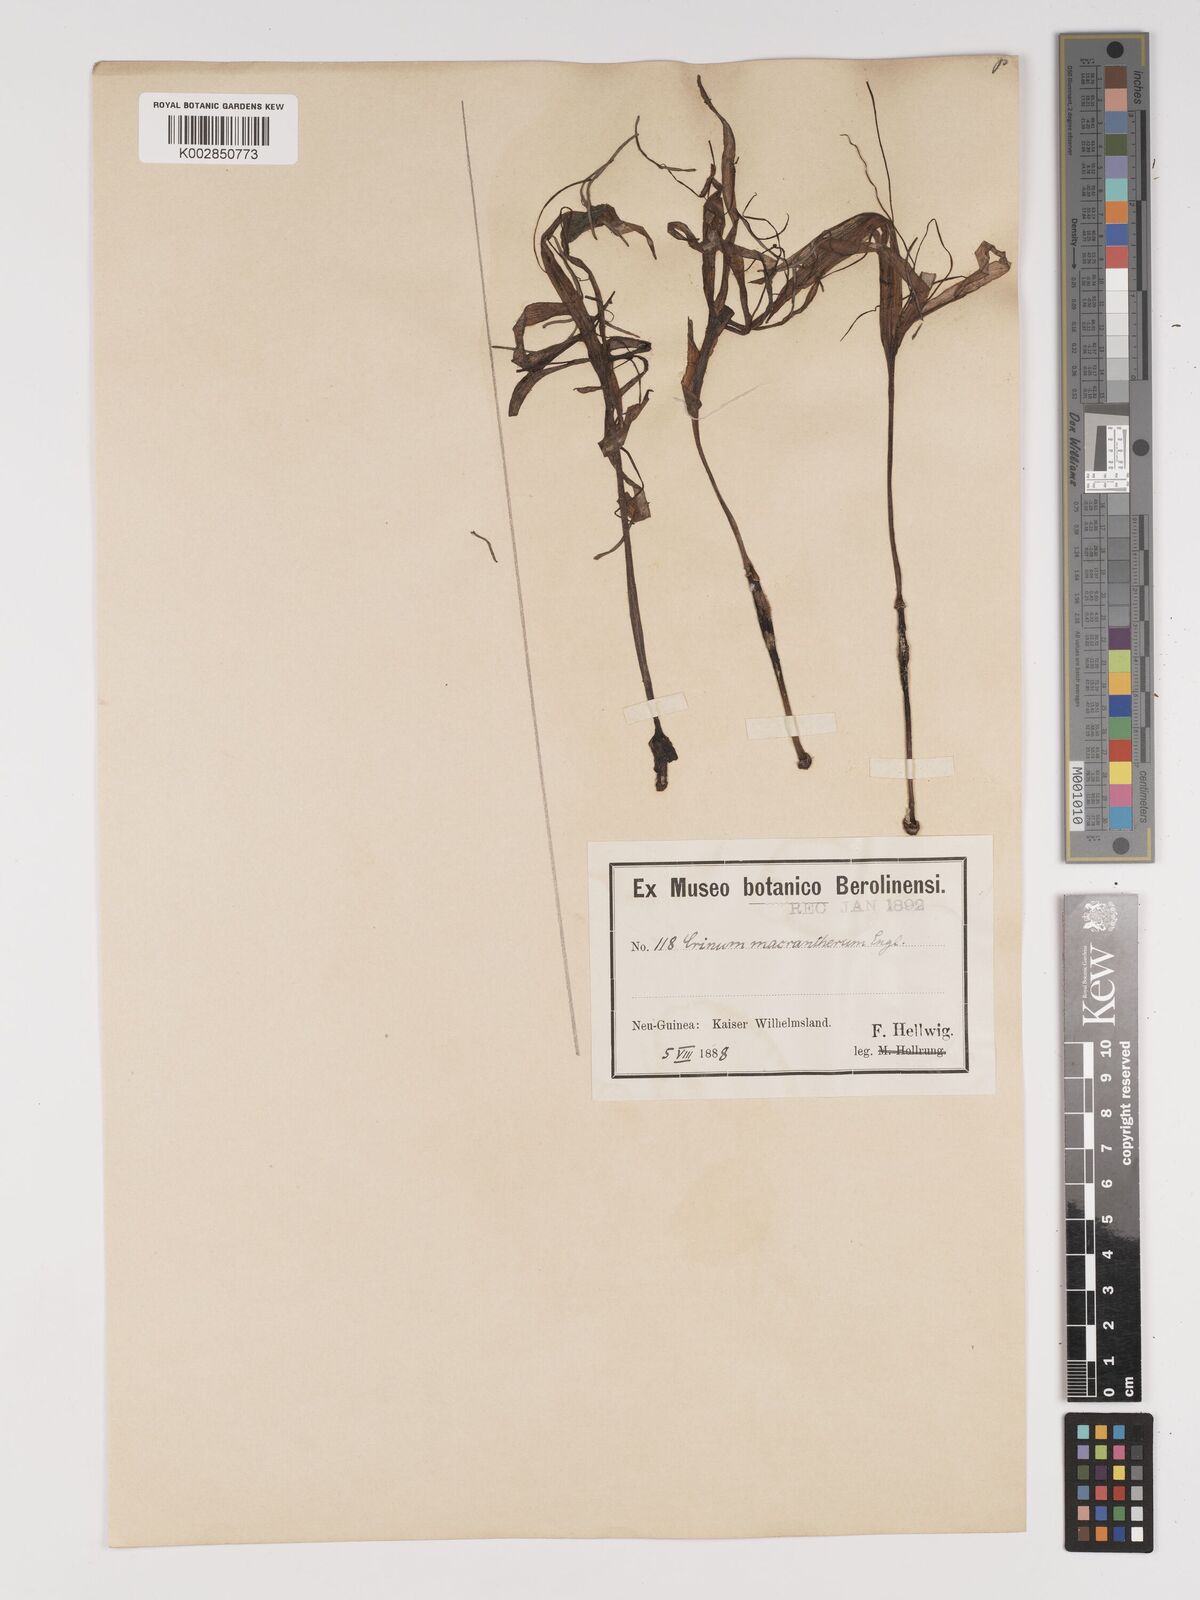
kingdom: Plantae
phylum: Tracheophyta
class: Liliopsida
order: Asparagales
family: Amaryllidaceae
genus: Crinum
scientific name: Crinum asiaticum
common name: Poisonbulb
